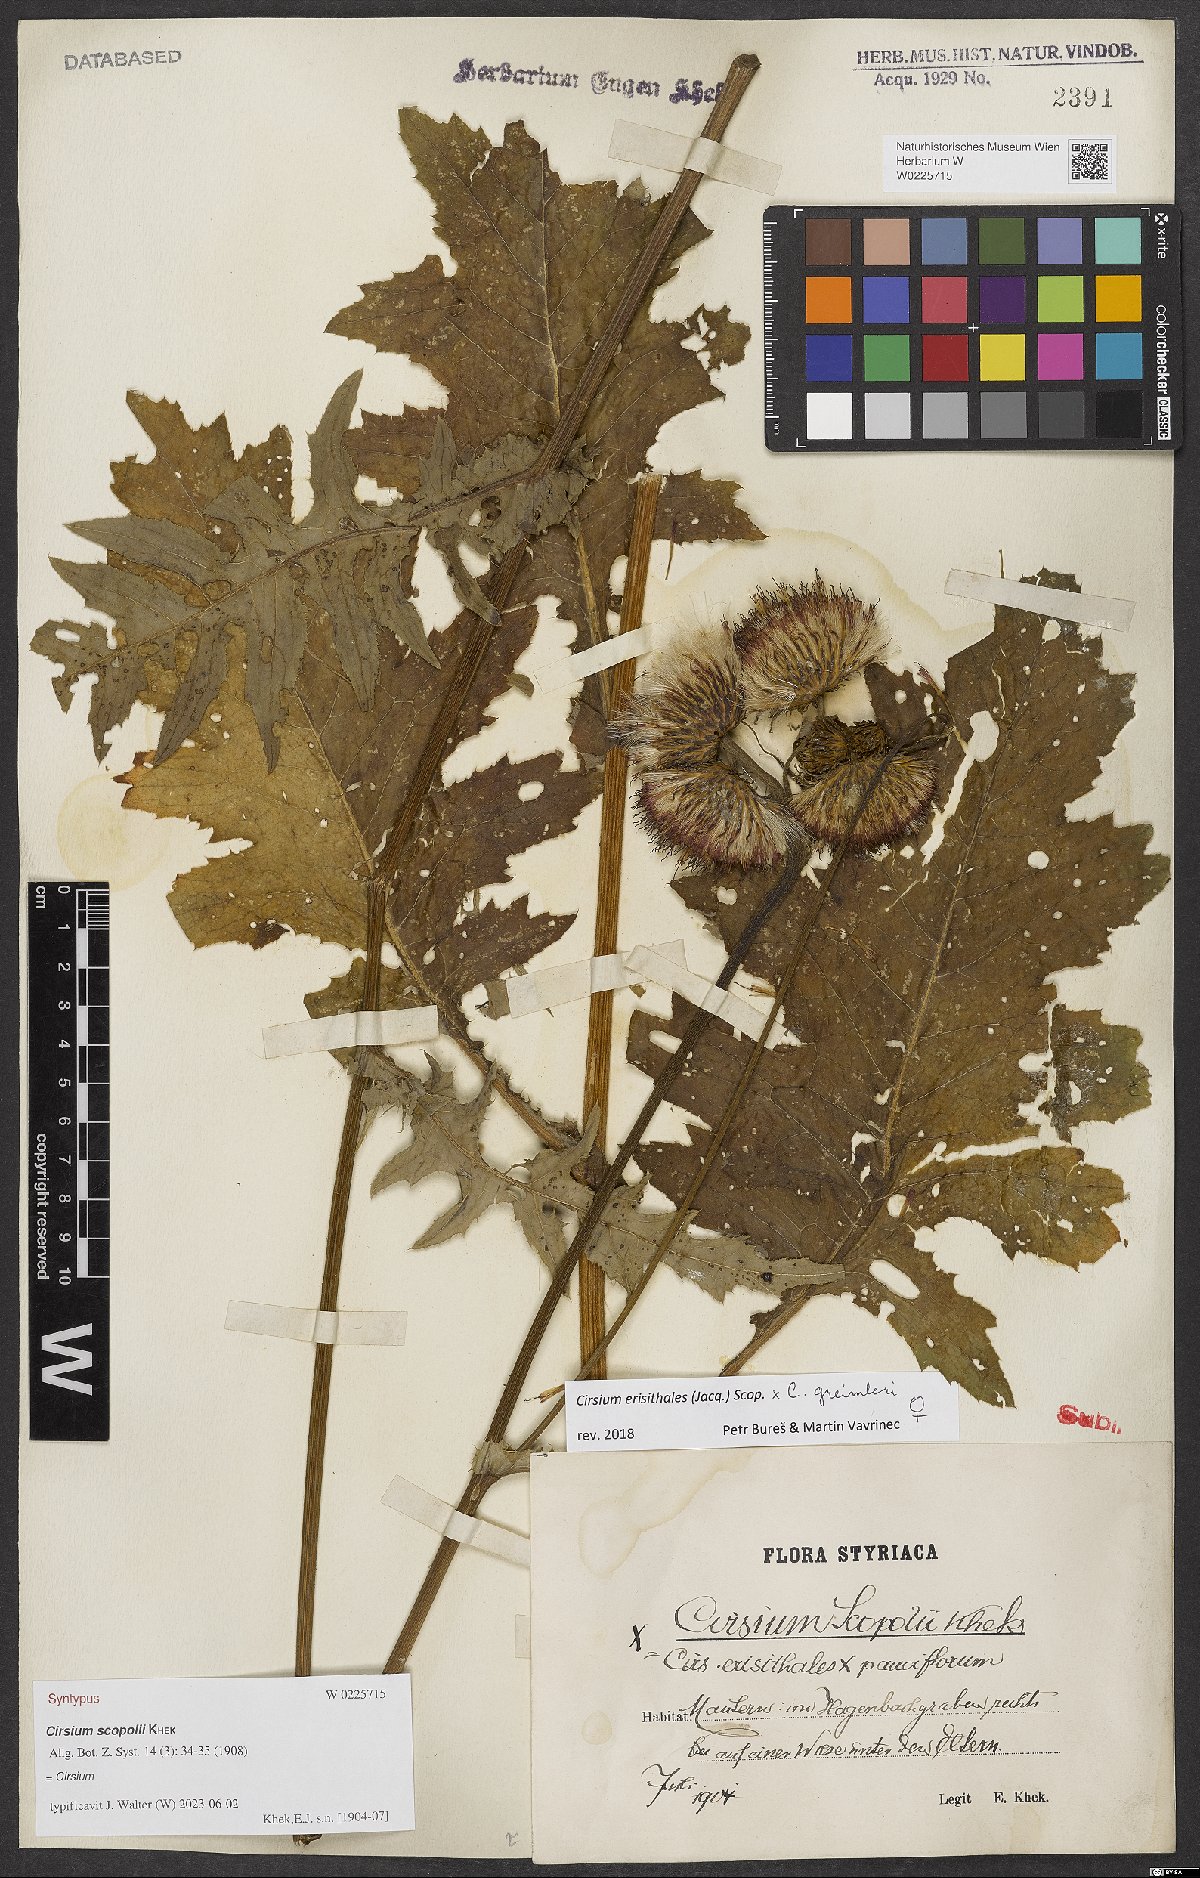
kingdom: Plantae
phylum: Tracheophyta
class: Magnoliopsida
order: Asterales
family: Asteraceae
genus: Cirsium
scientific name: Cirsium scopolii
